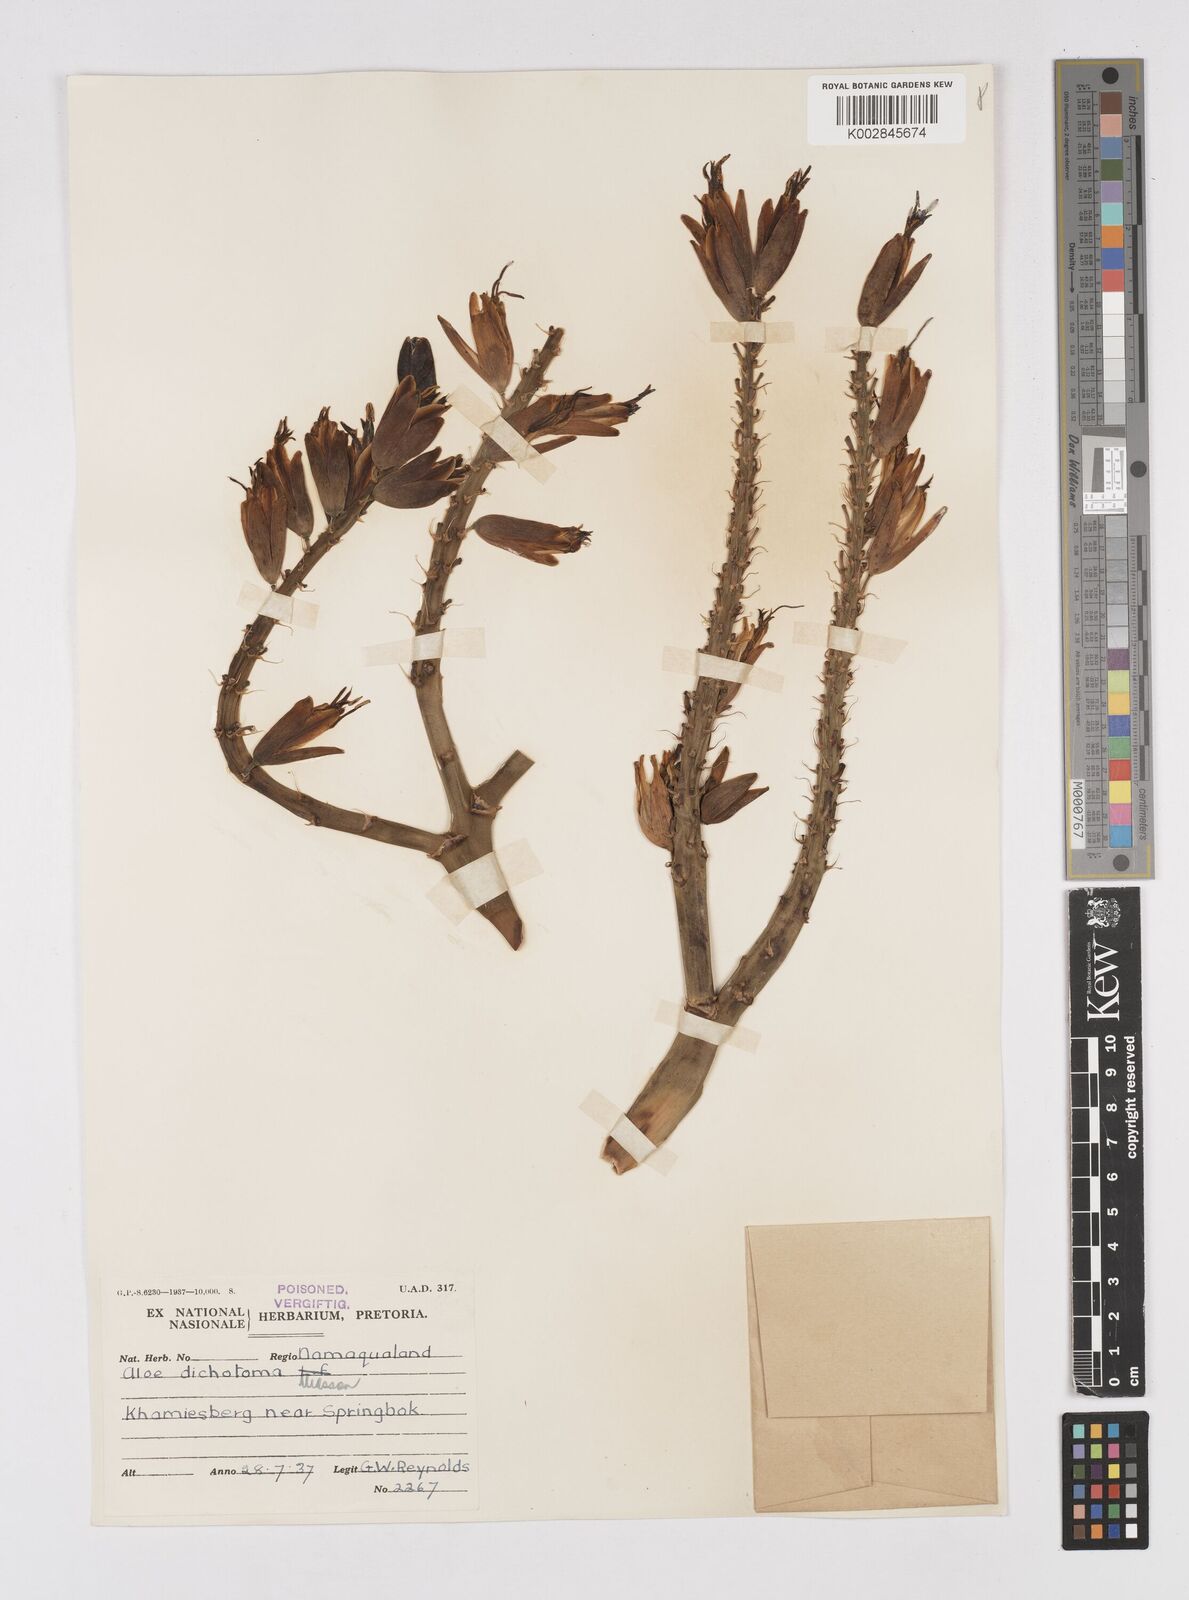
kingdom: Plantae
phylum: Tracheophyta
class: Liliopsida
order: Asparagales
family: Asphodelaceae
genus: Aloidendron
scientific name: Aloidendron dichotomum
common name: Quiver tree
